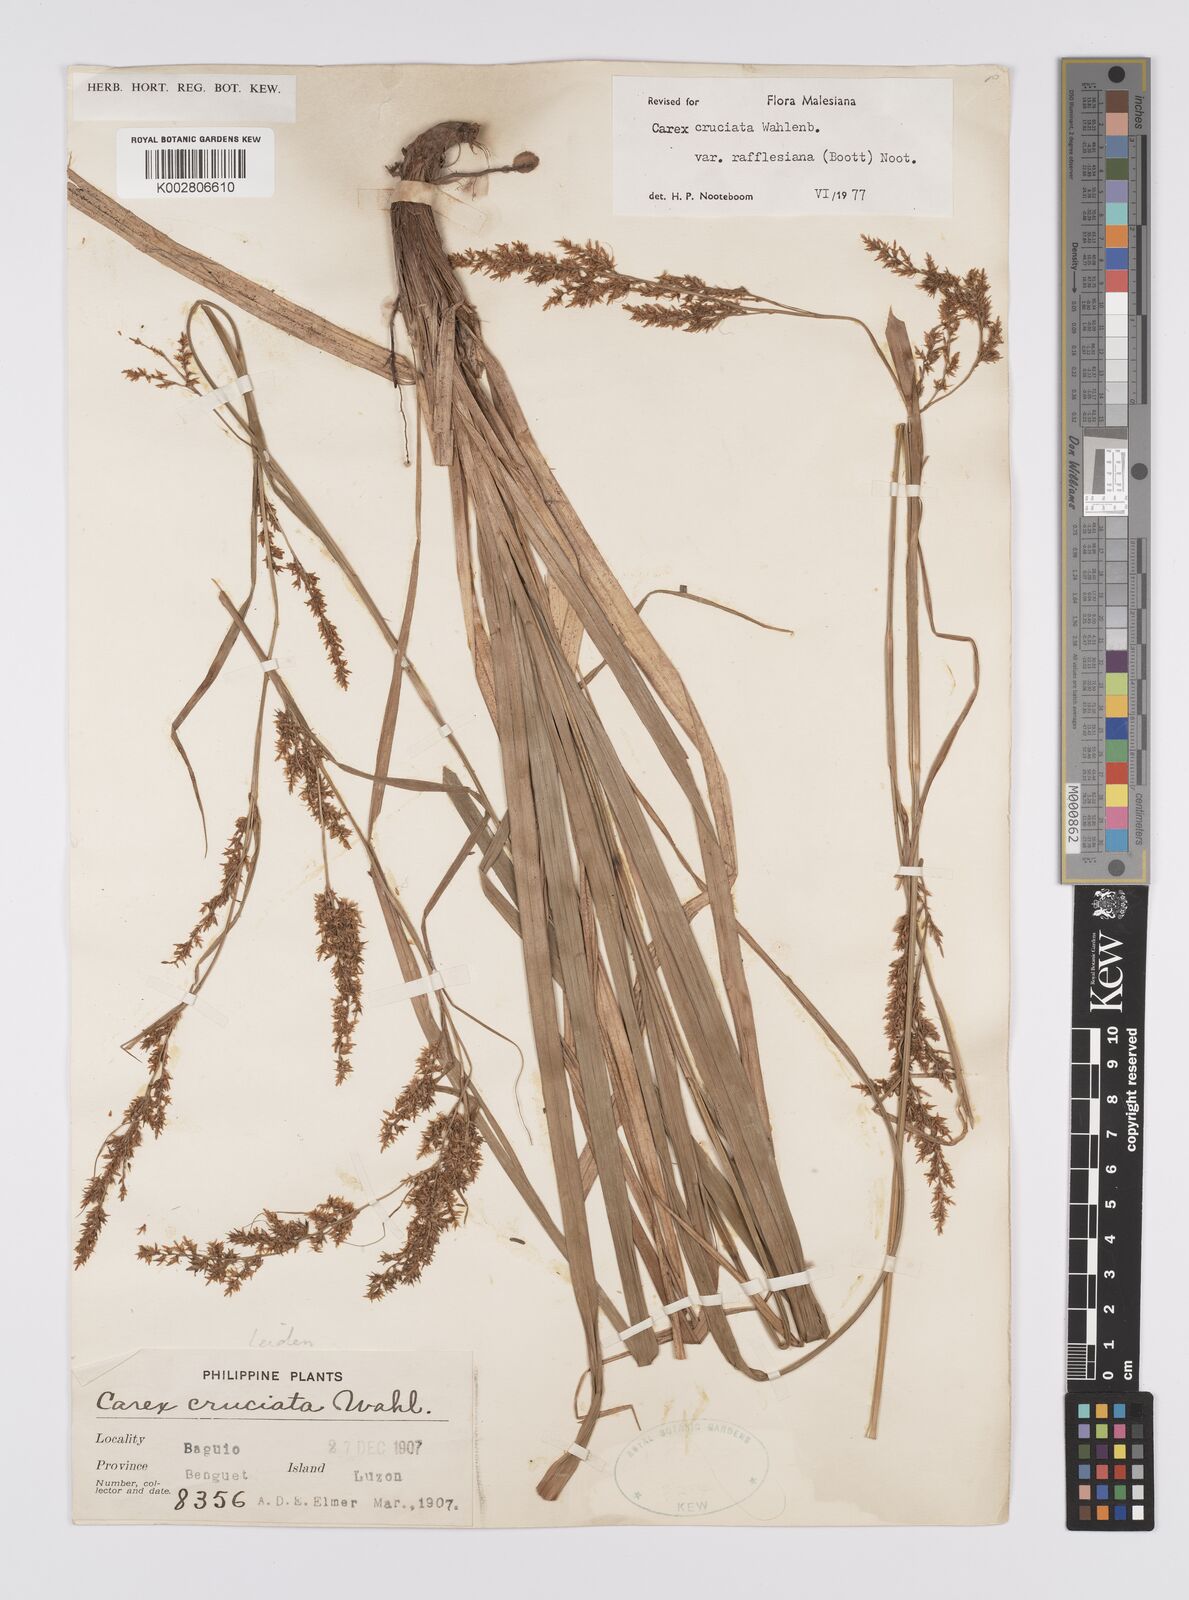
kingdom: Plantae
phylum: Tracheophyta
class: Liliopsida
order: Poales
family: Cyperaceae
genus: Carex
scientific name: Carex rafflesiana
